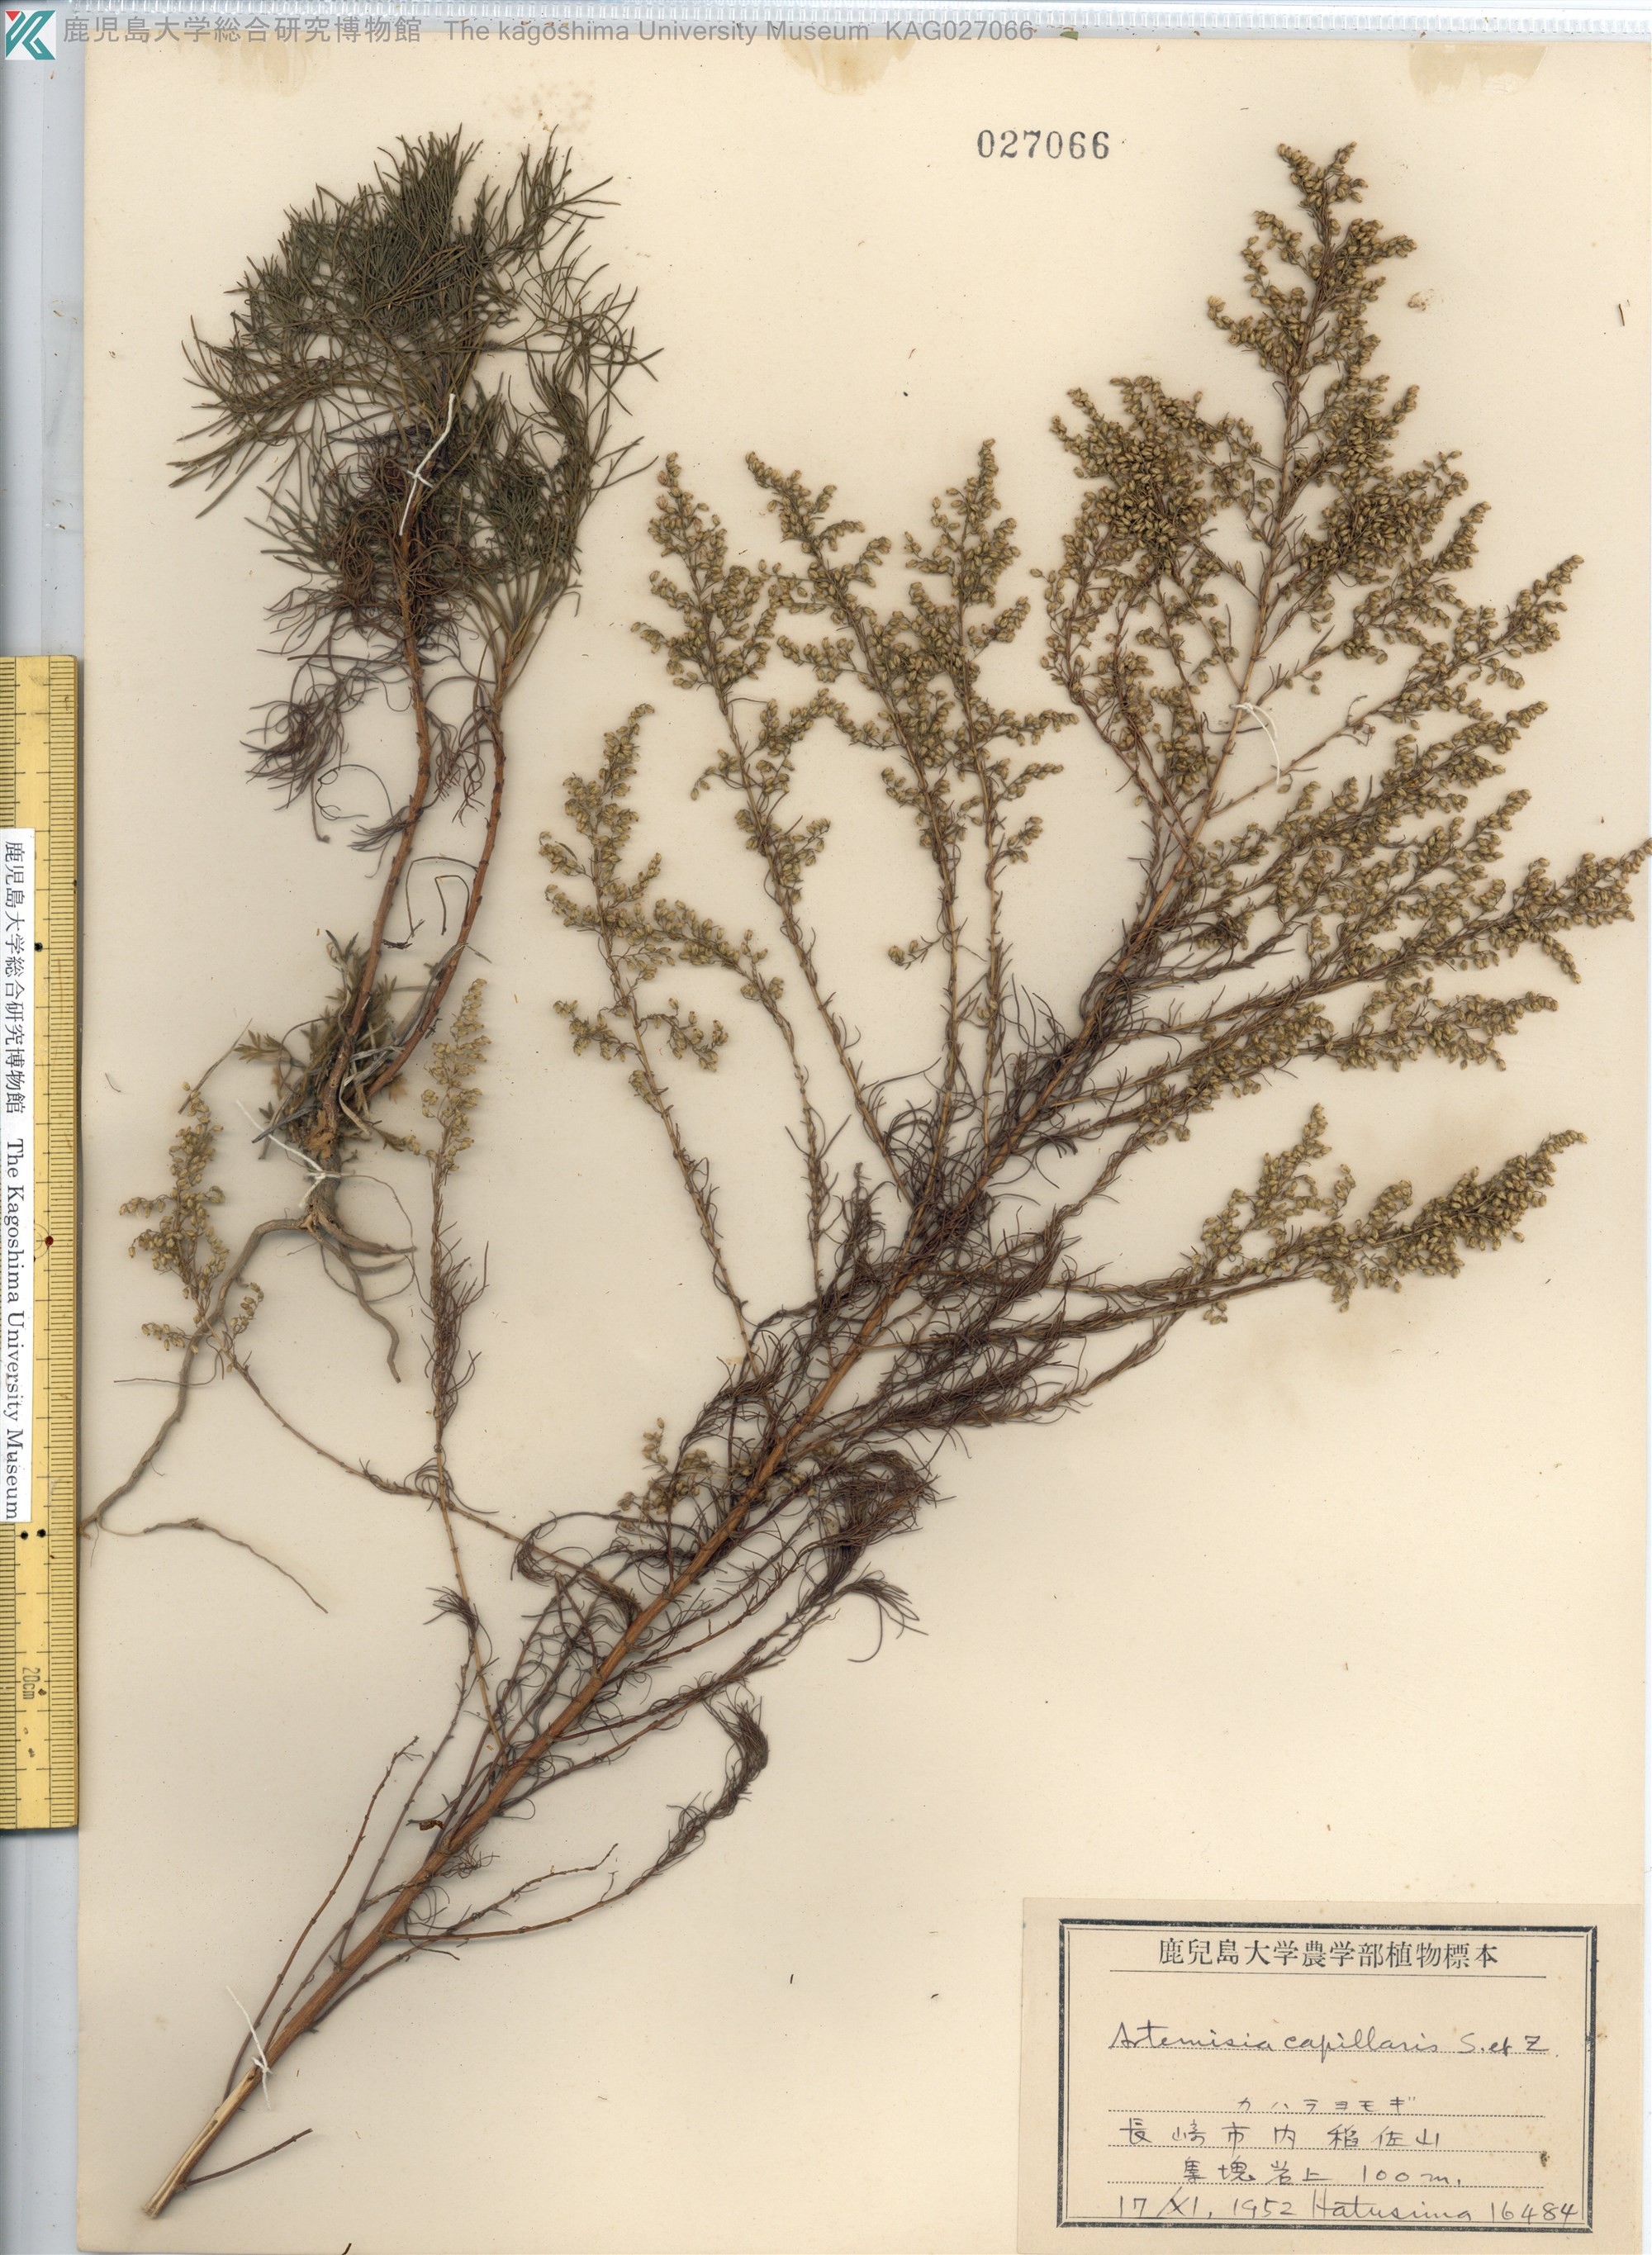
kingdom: Plantae
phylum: Tracheophyta
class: Magnoliopsida
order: Asterales
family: Asteraceae
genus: Artemisia
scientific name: Artemisia capillaris
